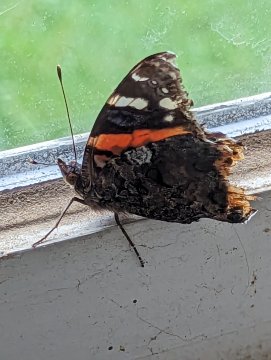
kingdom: Animalia
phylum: Arthropoda
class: Insecta
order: Lepidoptera
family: Nymphalidae
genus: Vanessa
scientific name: Vanessa atalanta
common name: Red Admiral
